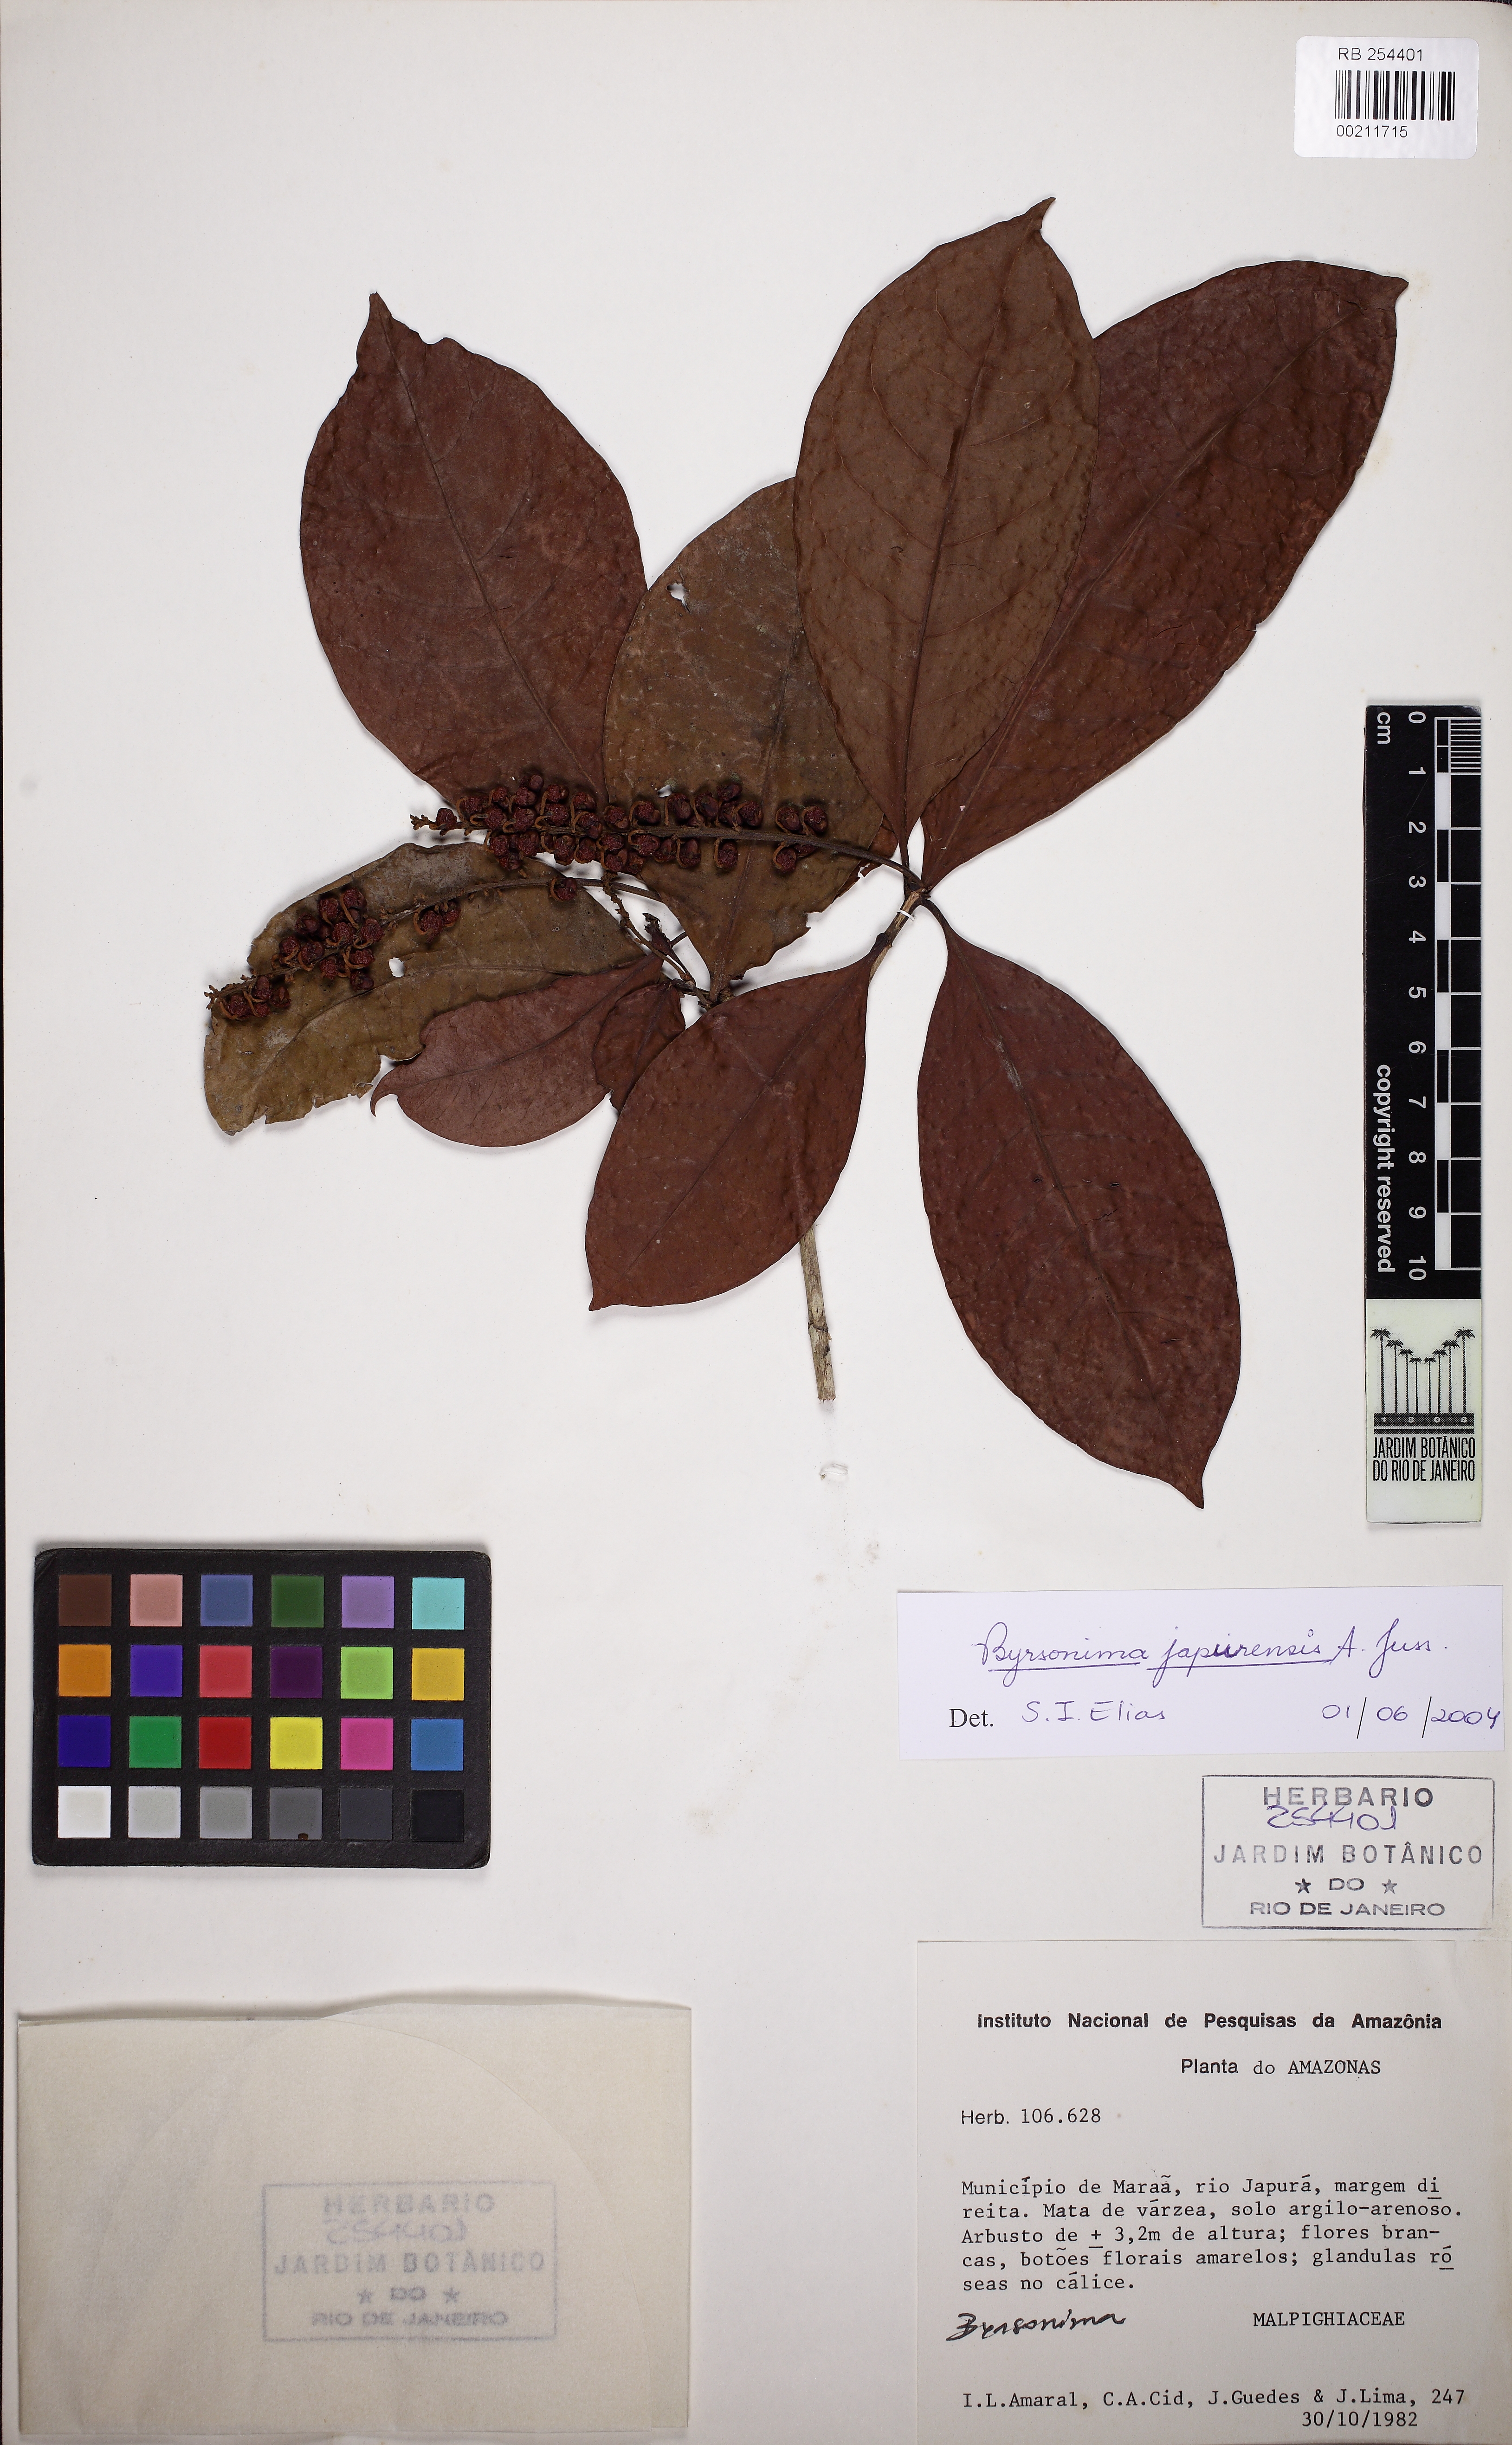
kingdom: Plantae
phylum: Tracheophyta
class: Magnoliopsida
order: Malpighiales
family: Malpighiaceae
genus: Byrsonima
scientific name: Byrsonima japurensis
